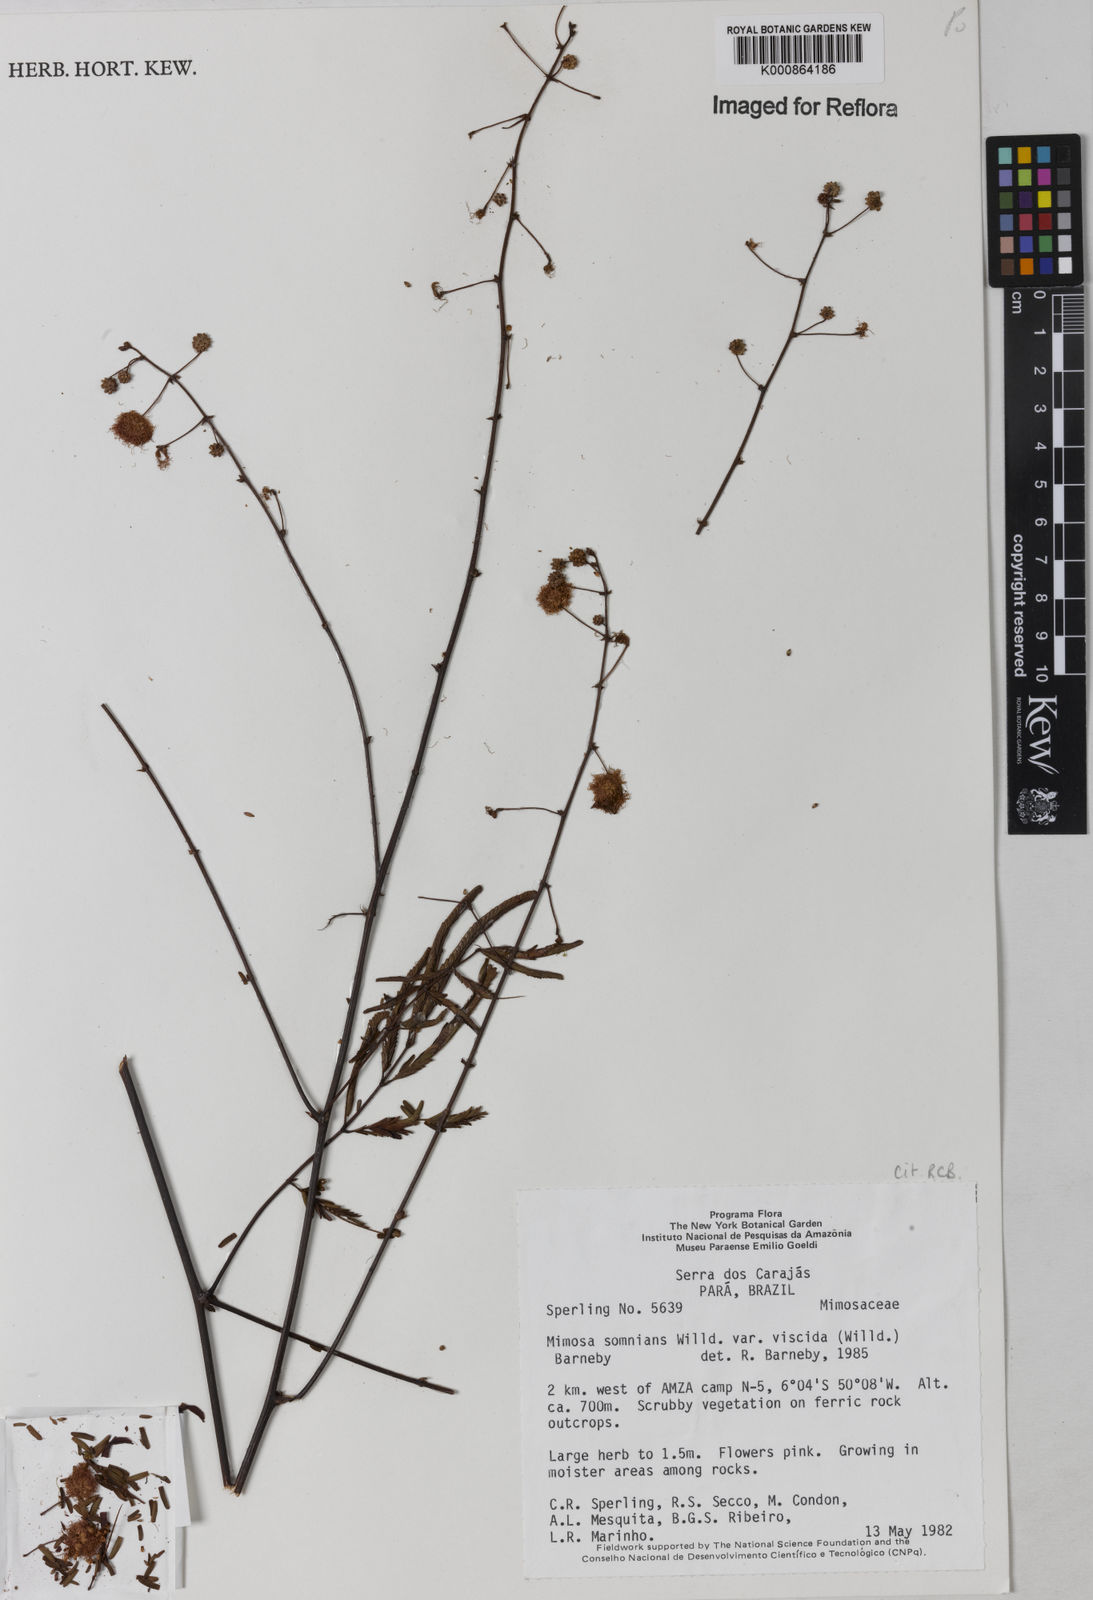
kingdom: Plantae
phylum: Tracheophyta
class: Magnoliopsida
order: Fabales
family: Fabaceae
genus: Mimosa
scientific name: Mimosa somnians
